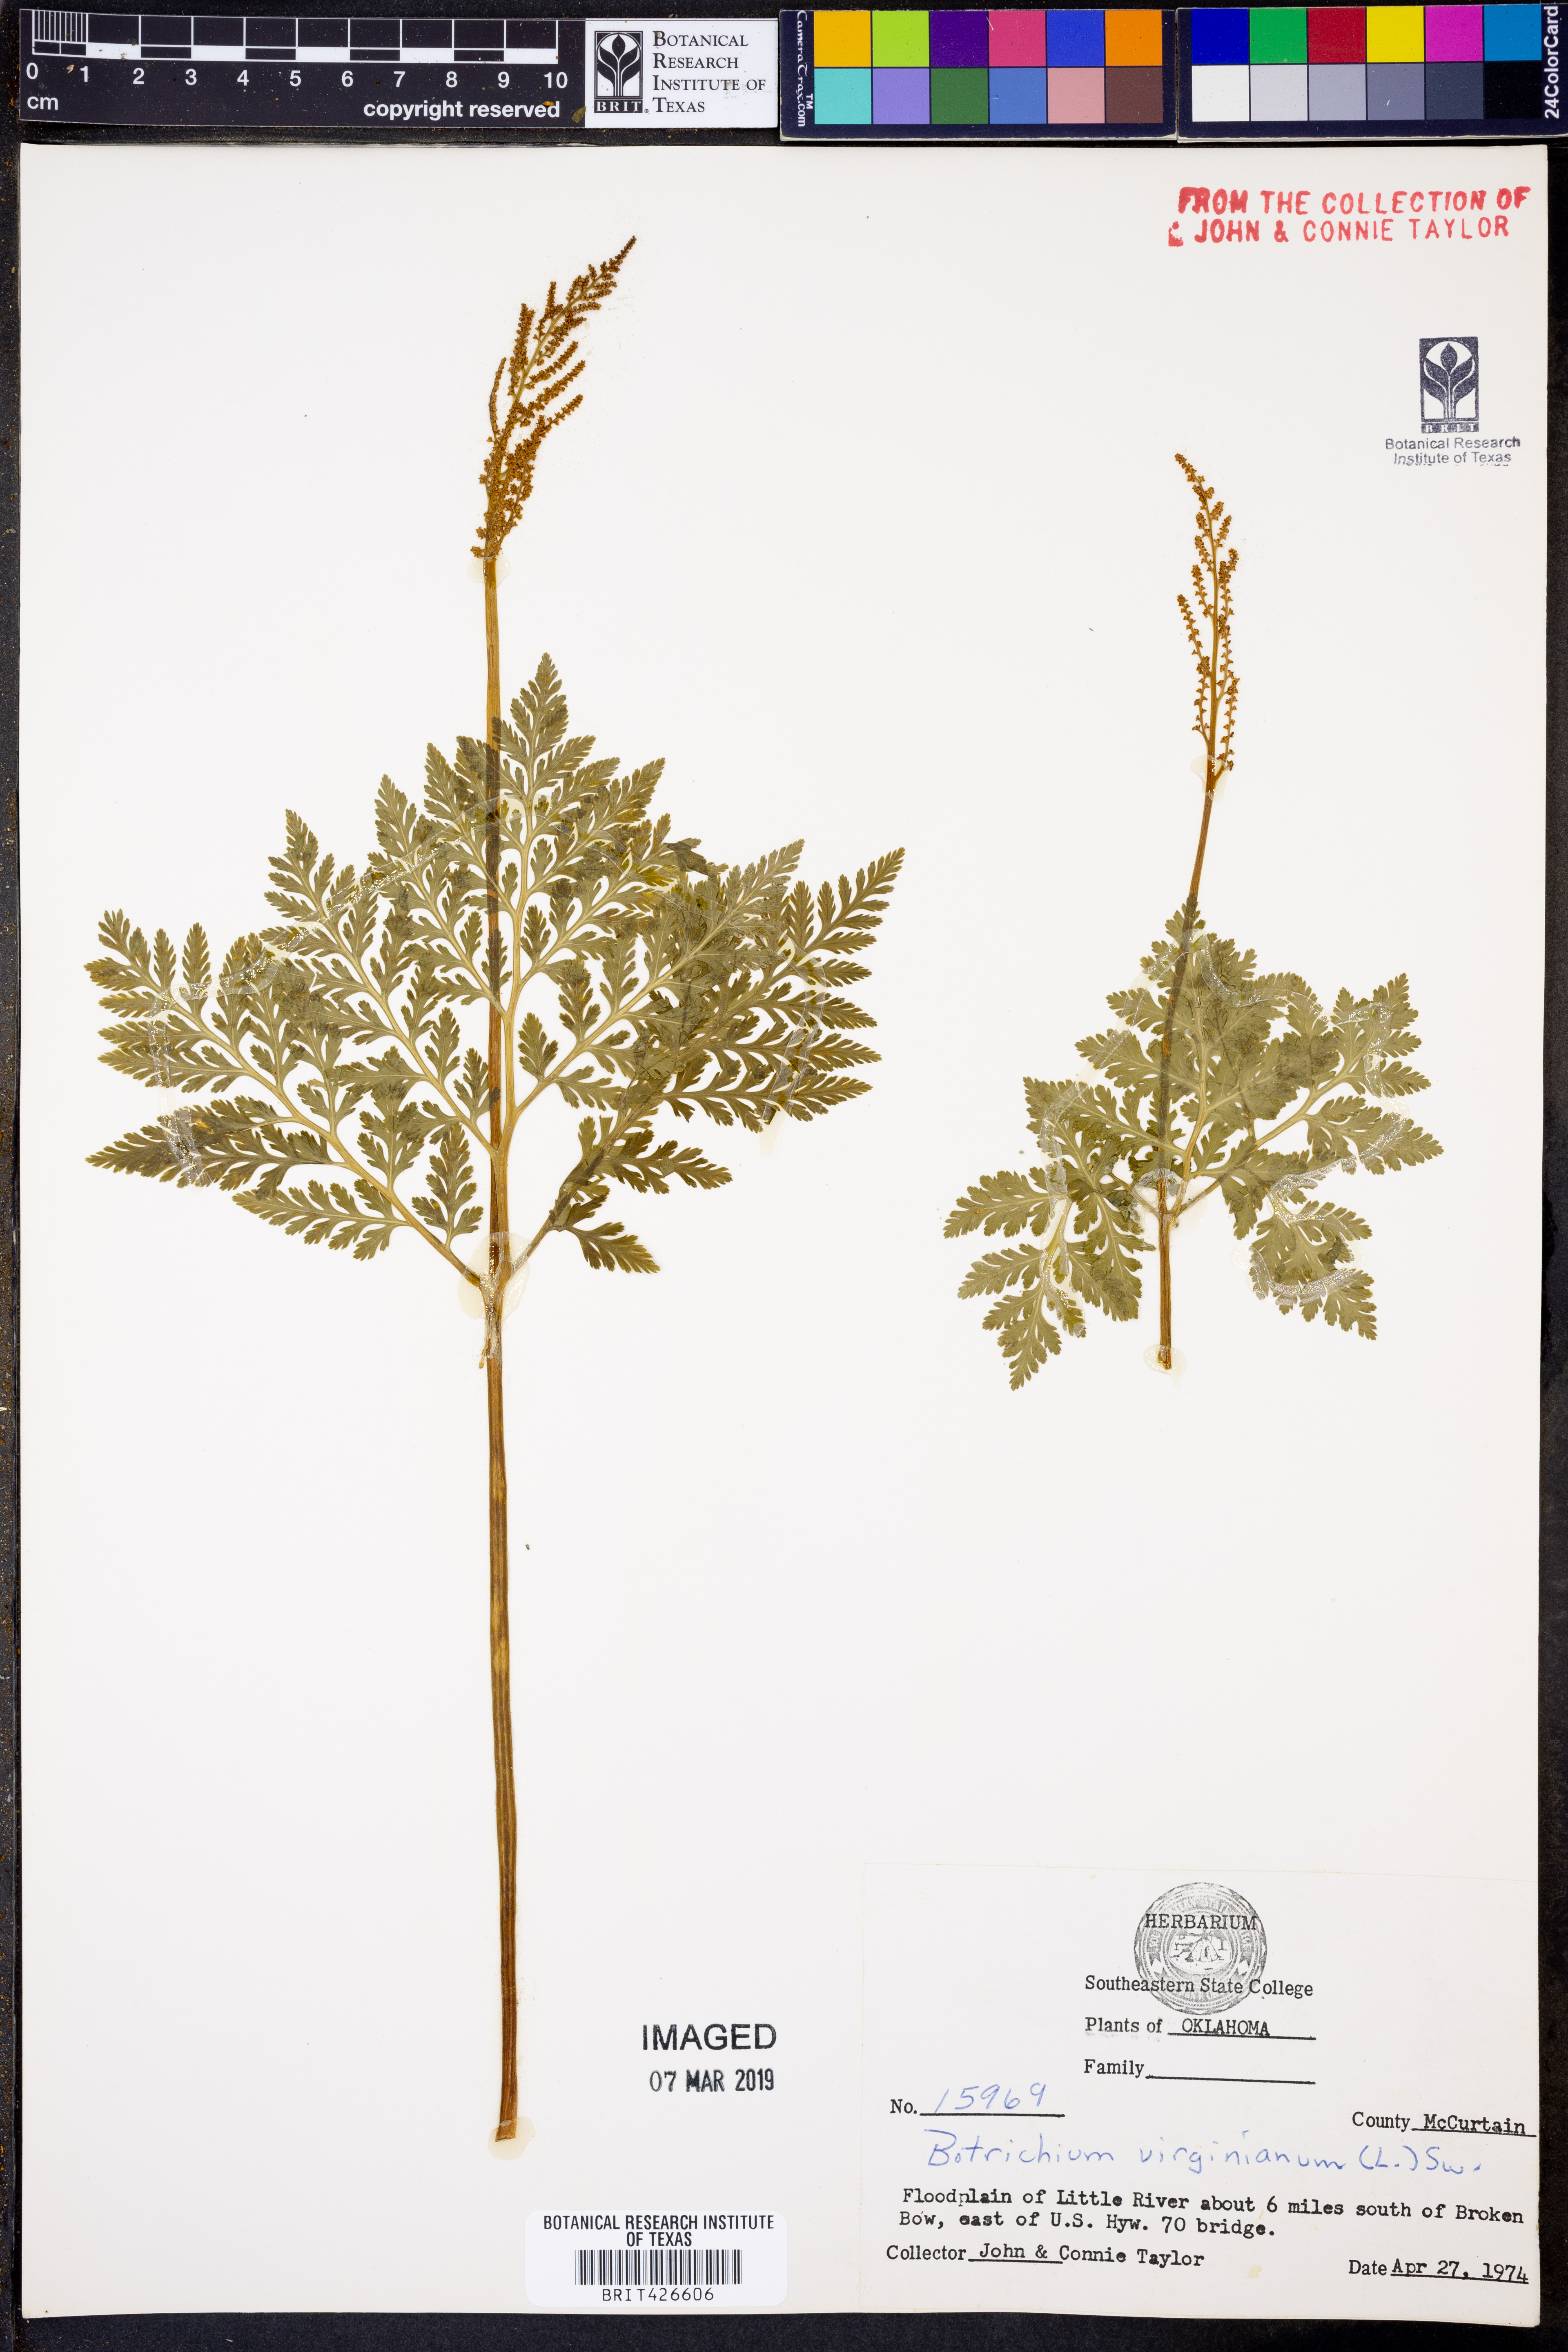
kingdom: Plantae
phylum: Tracheophyta
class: Polypodiopsida
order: Ophioglossales
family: Ophioglossaceae
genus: Botrypus
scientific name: Botrypus virginianus
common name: Common grapefern
